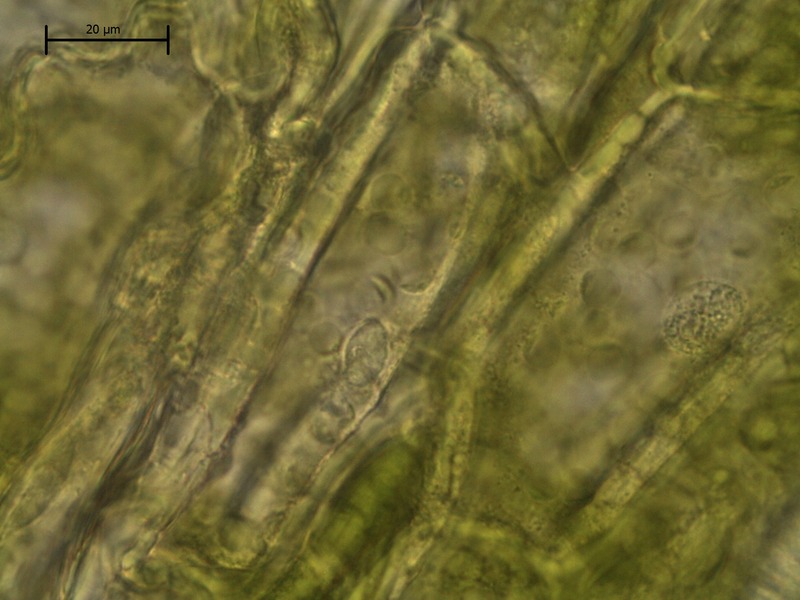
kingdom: Fungi
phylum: Basidiomycota
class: Exobasidiomycetes
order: Entylomatales
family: Entylomataceae
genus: Entyloma
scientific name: Entyloma ranunculi-repentis
